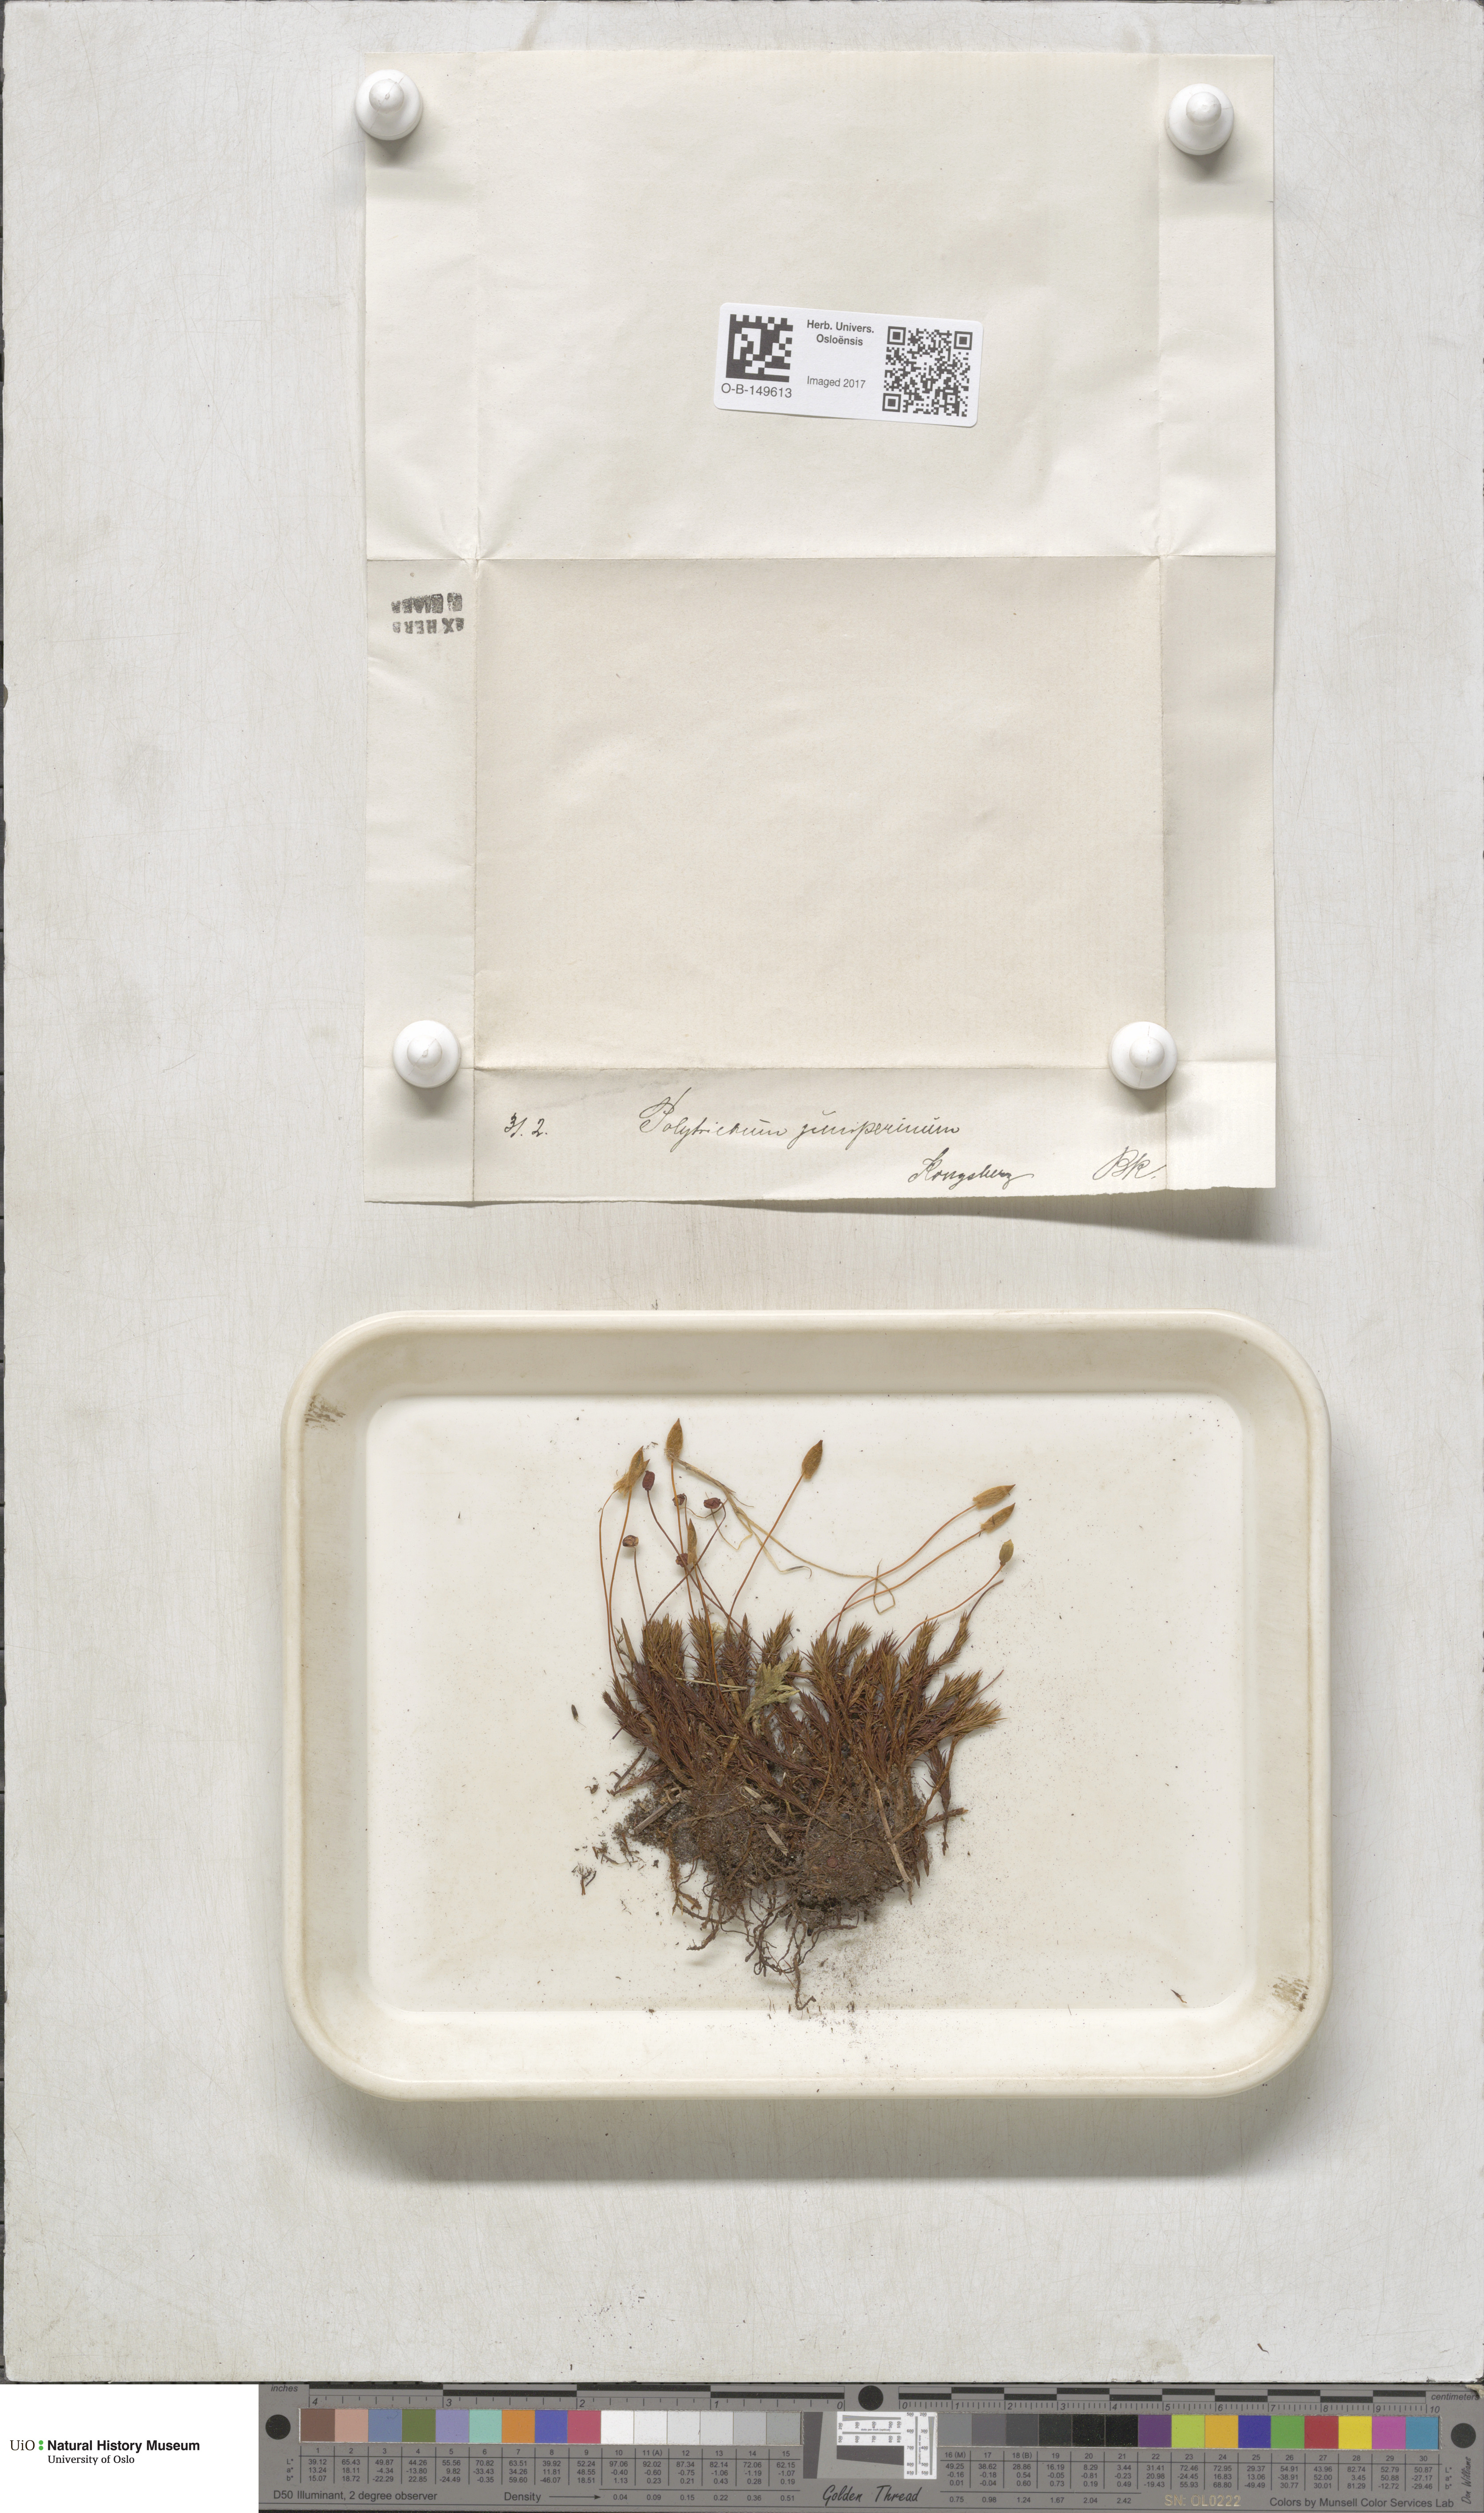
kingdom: Plantae
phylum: Bryophyta
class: Polytrichopsida
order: Polytrichales
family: Polytrichaceae
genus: Polytrichum
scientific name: Polytrichum juniperinum
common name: Juniper haircap moss
